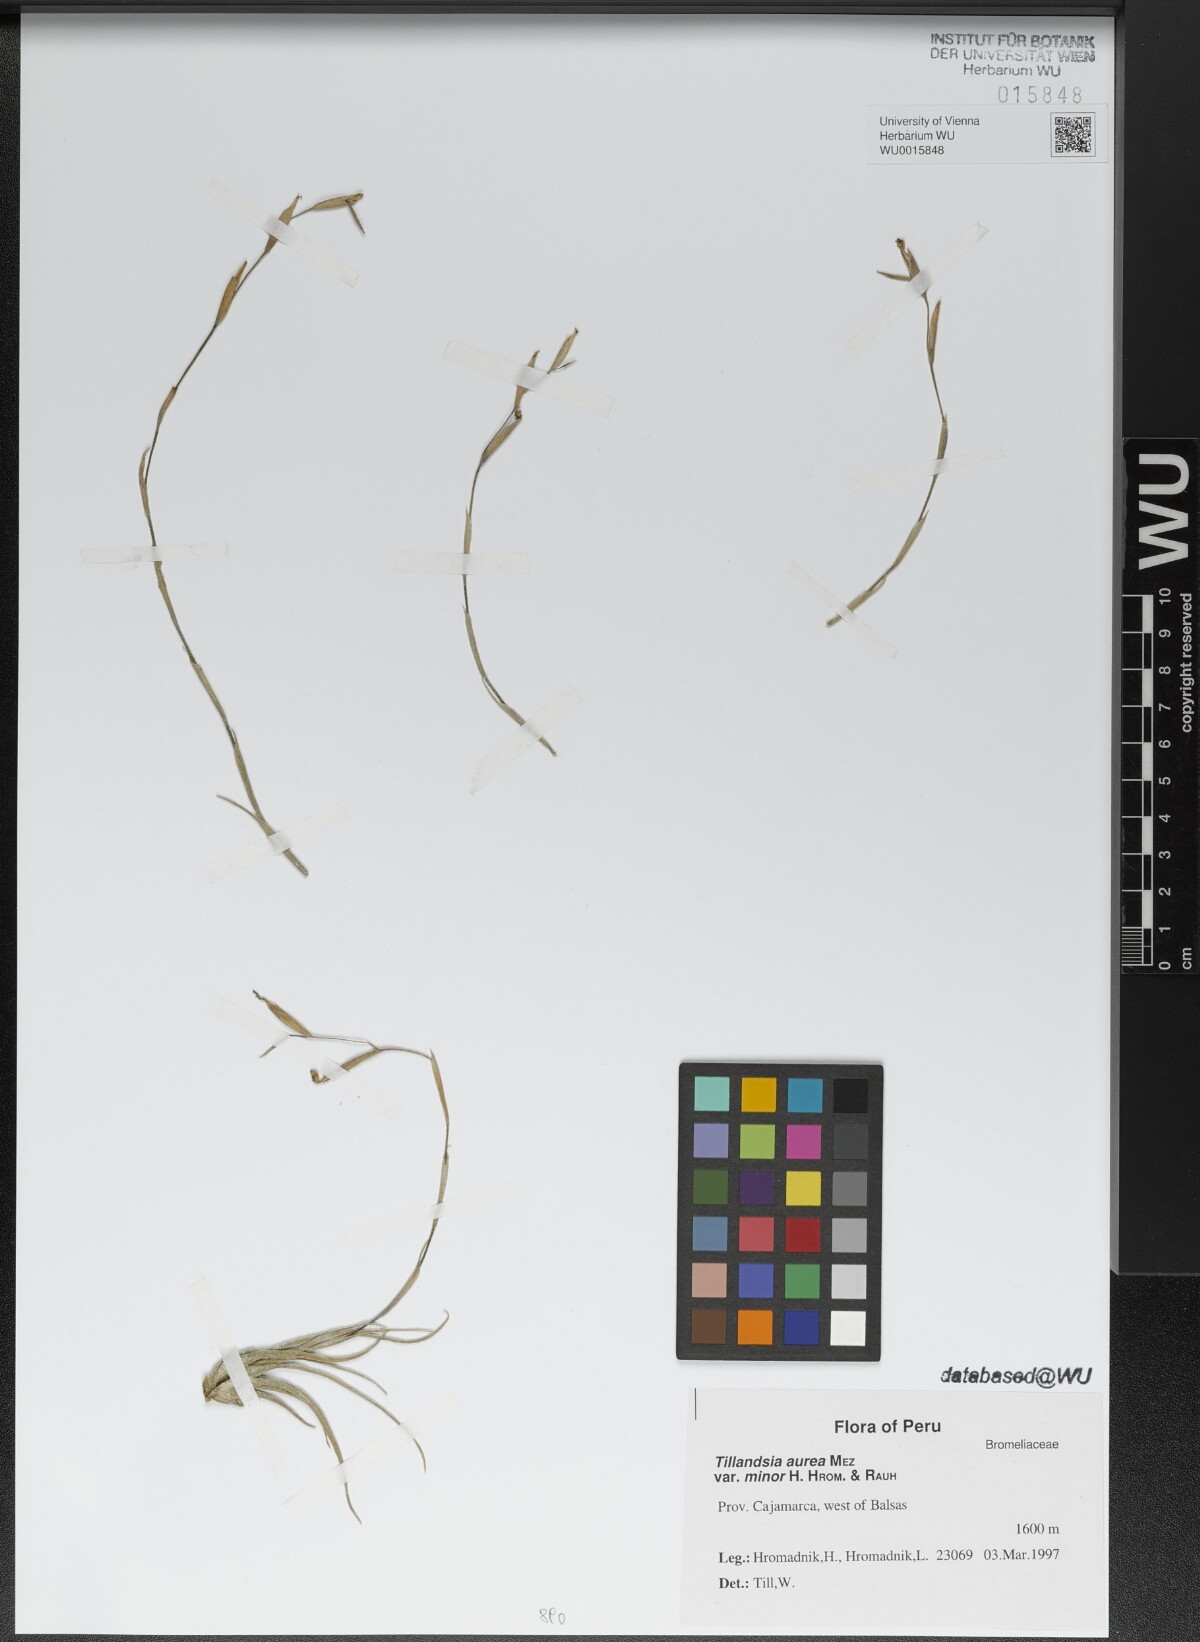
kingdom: Plantae
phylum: Tracheophyta
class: Liliopsida
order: Poales
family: Bromeliaceae
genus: Tillandsia
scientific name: Tillandsia aurea
